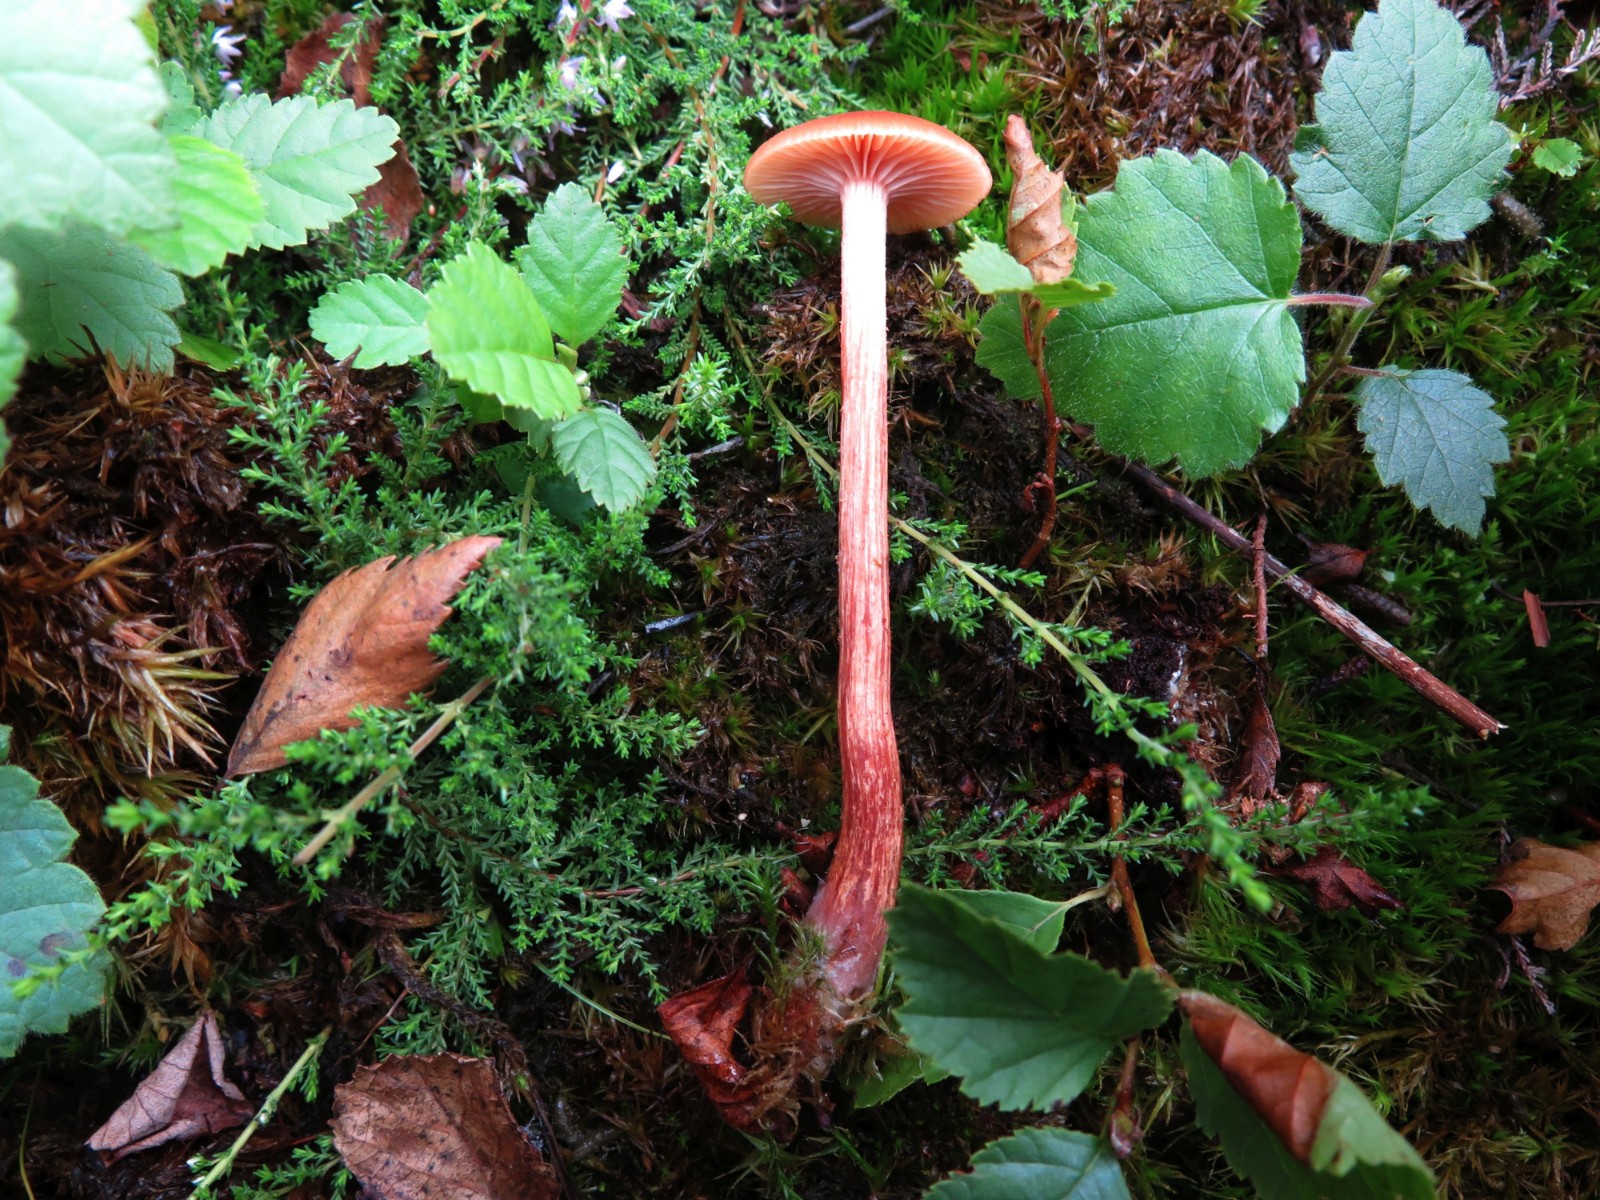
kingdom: Fungi
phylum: Basidiomycota
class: Agaricomycetes
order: Agaricales
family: Hydnangiaceae
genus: Laccaria
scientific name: Laccaria proxima
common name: stor ametysthat
